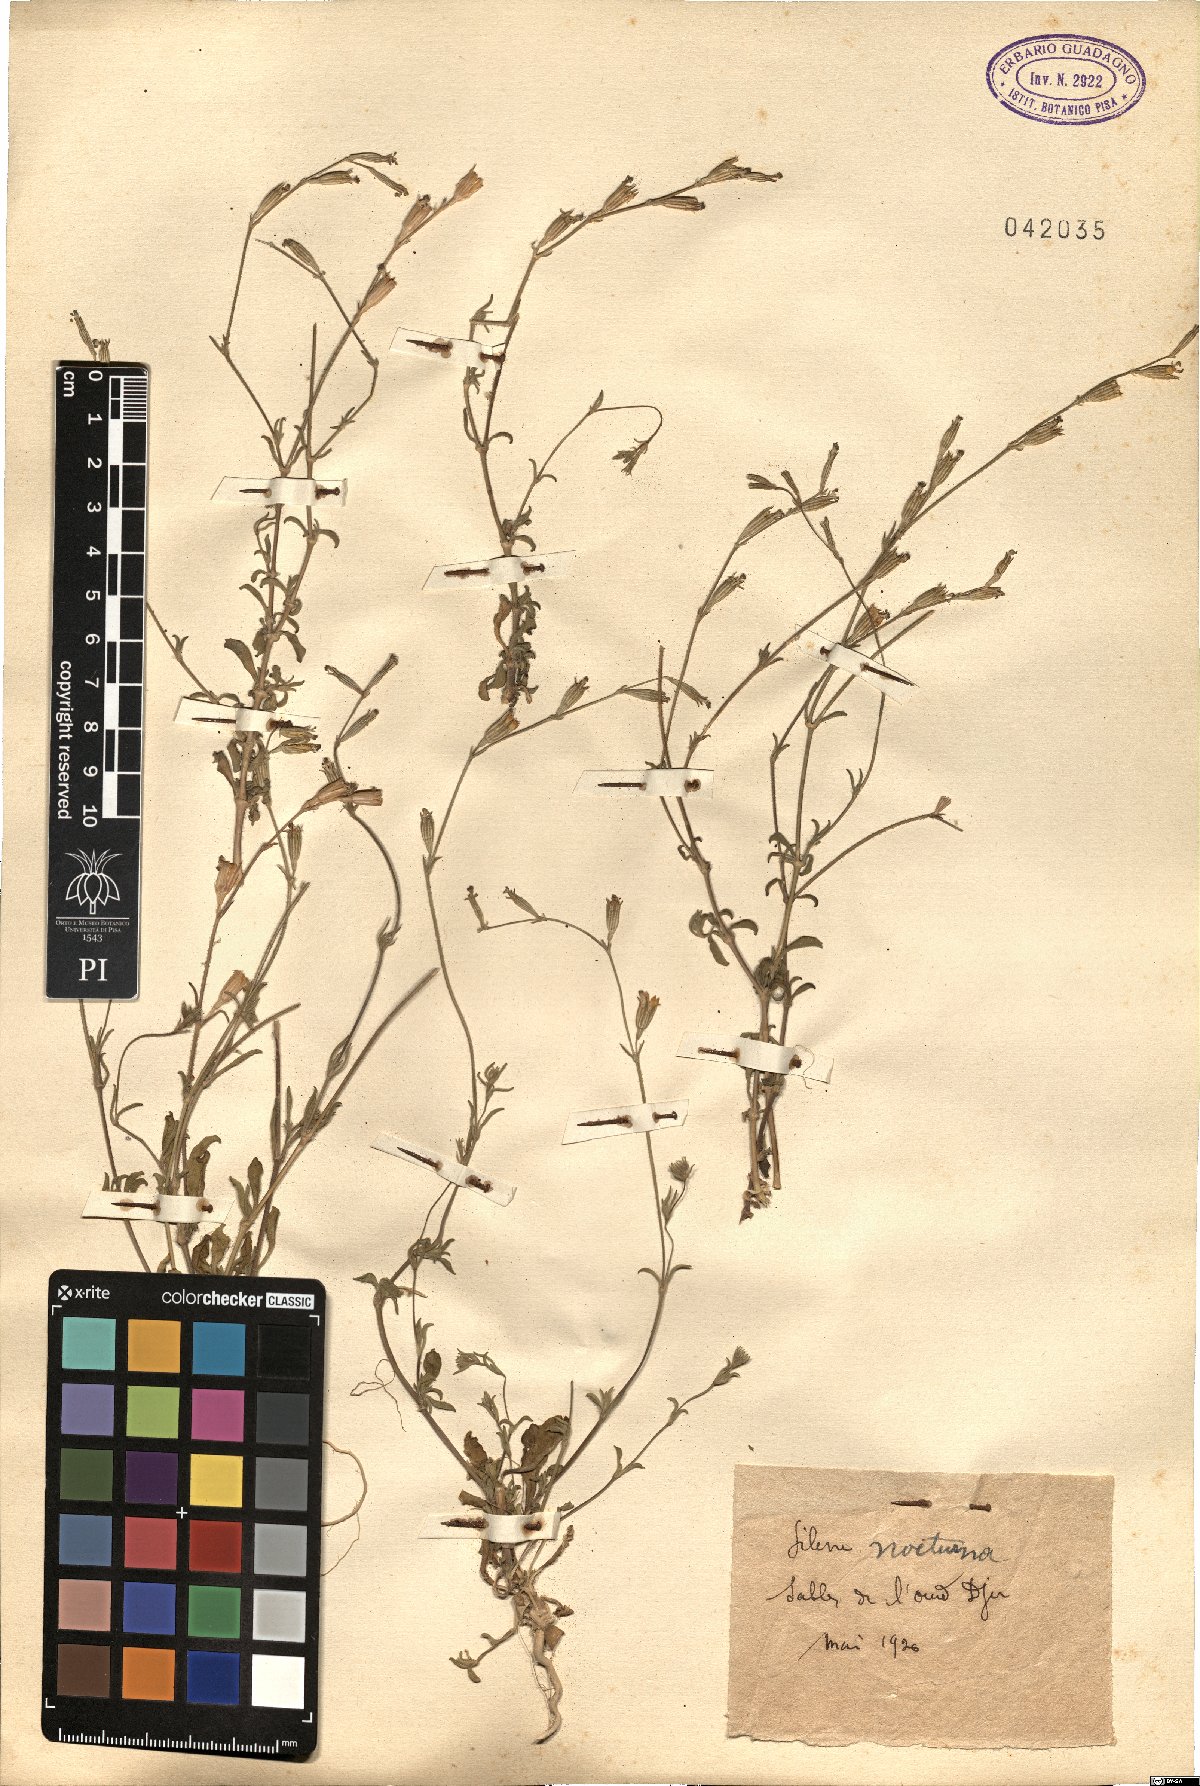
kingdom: Plantae
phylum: Tracheophyta
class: Magnoliopsida
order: Caryophyllales
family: Caryophyllaceae
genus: Silene
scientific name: Silene nocturna
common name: Mediterranean catchfly
